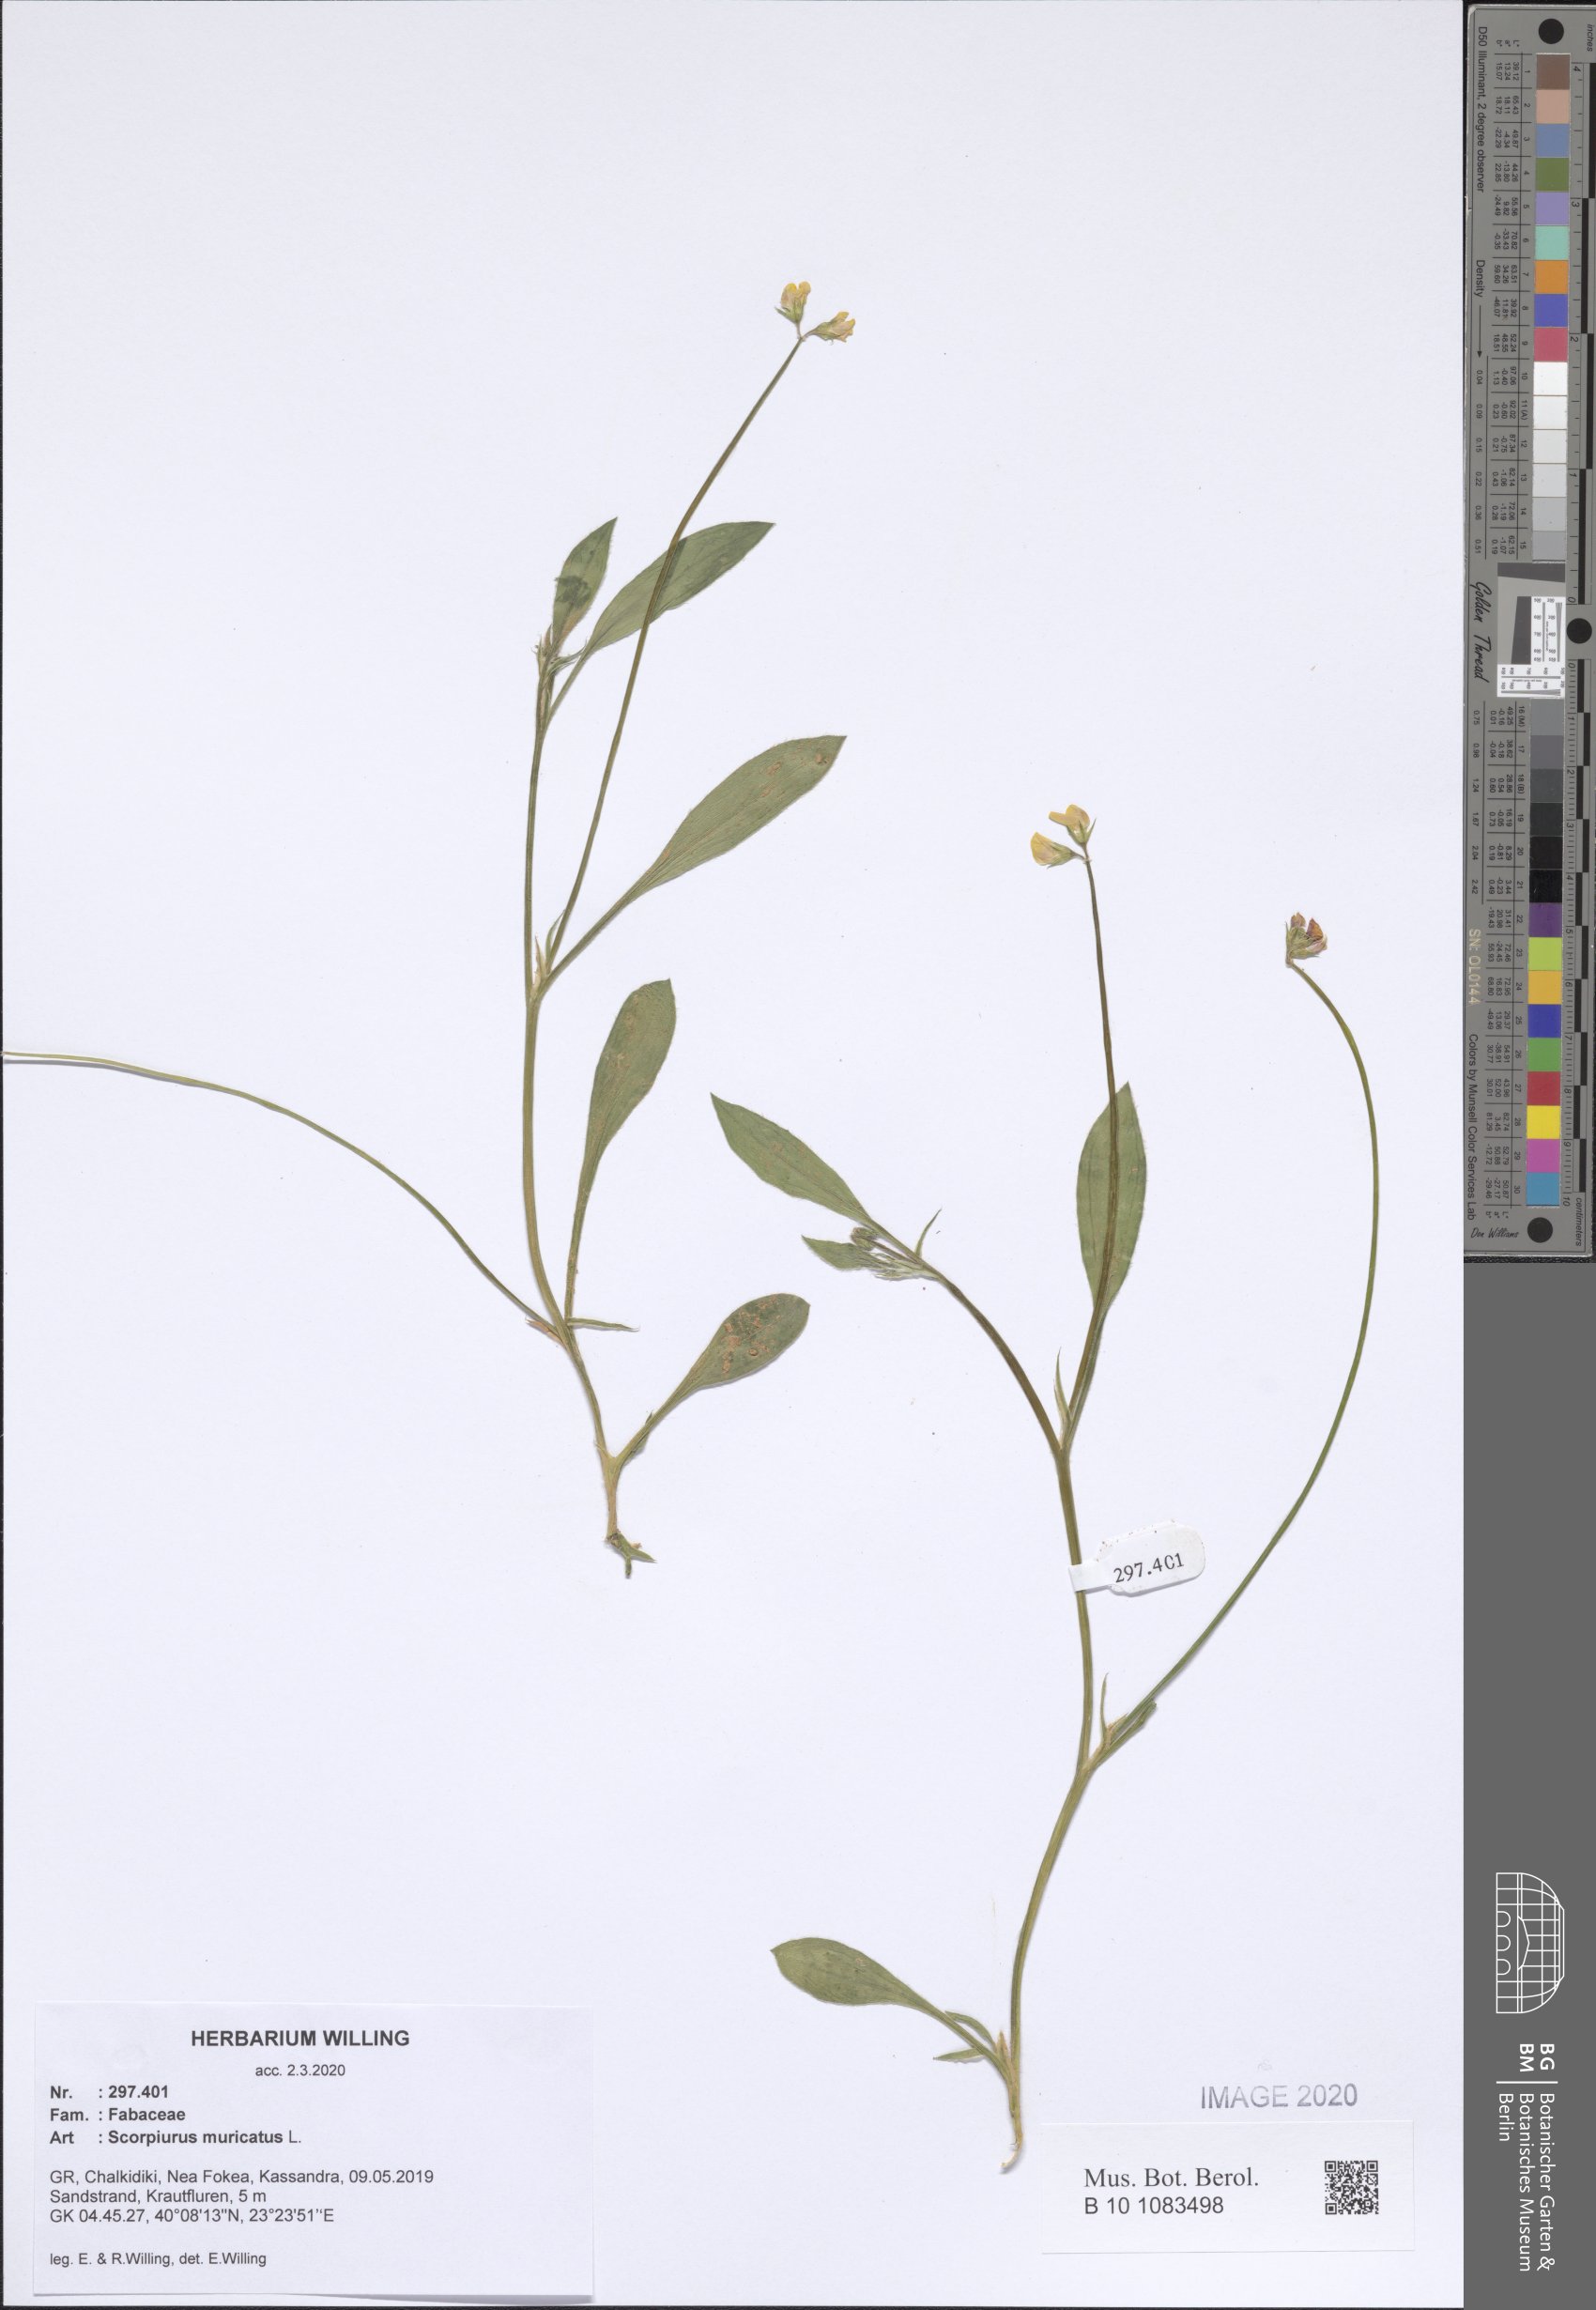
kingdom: Plantae
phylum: Tracheophyta
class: Magnoliopsida
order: Fabales
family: Fabaceae
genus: Scorpiurus
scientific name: Scorpiurus muricatus
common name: Caterpillar-plant
